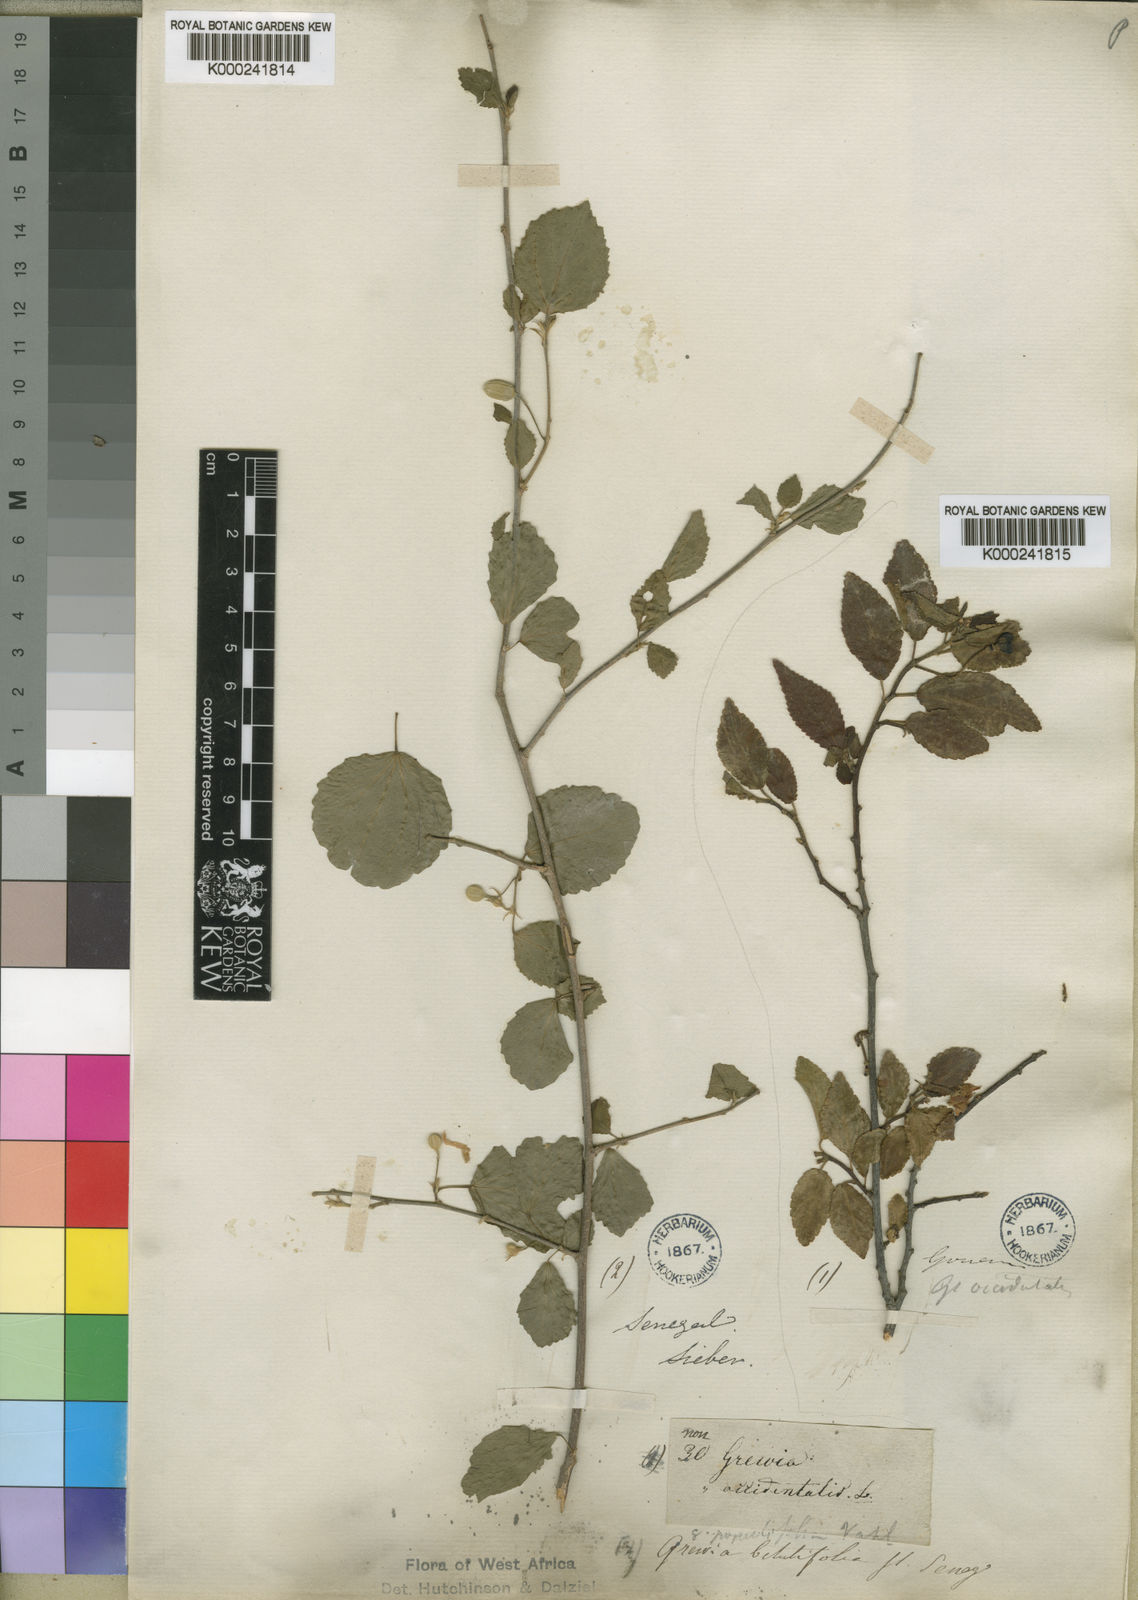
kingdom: Plantae
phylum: Tracheophyta
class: Magnoliopsida
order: Malvales
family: Malvaceae
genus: Grewia
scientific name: Grewia rupestris
